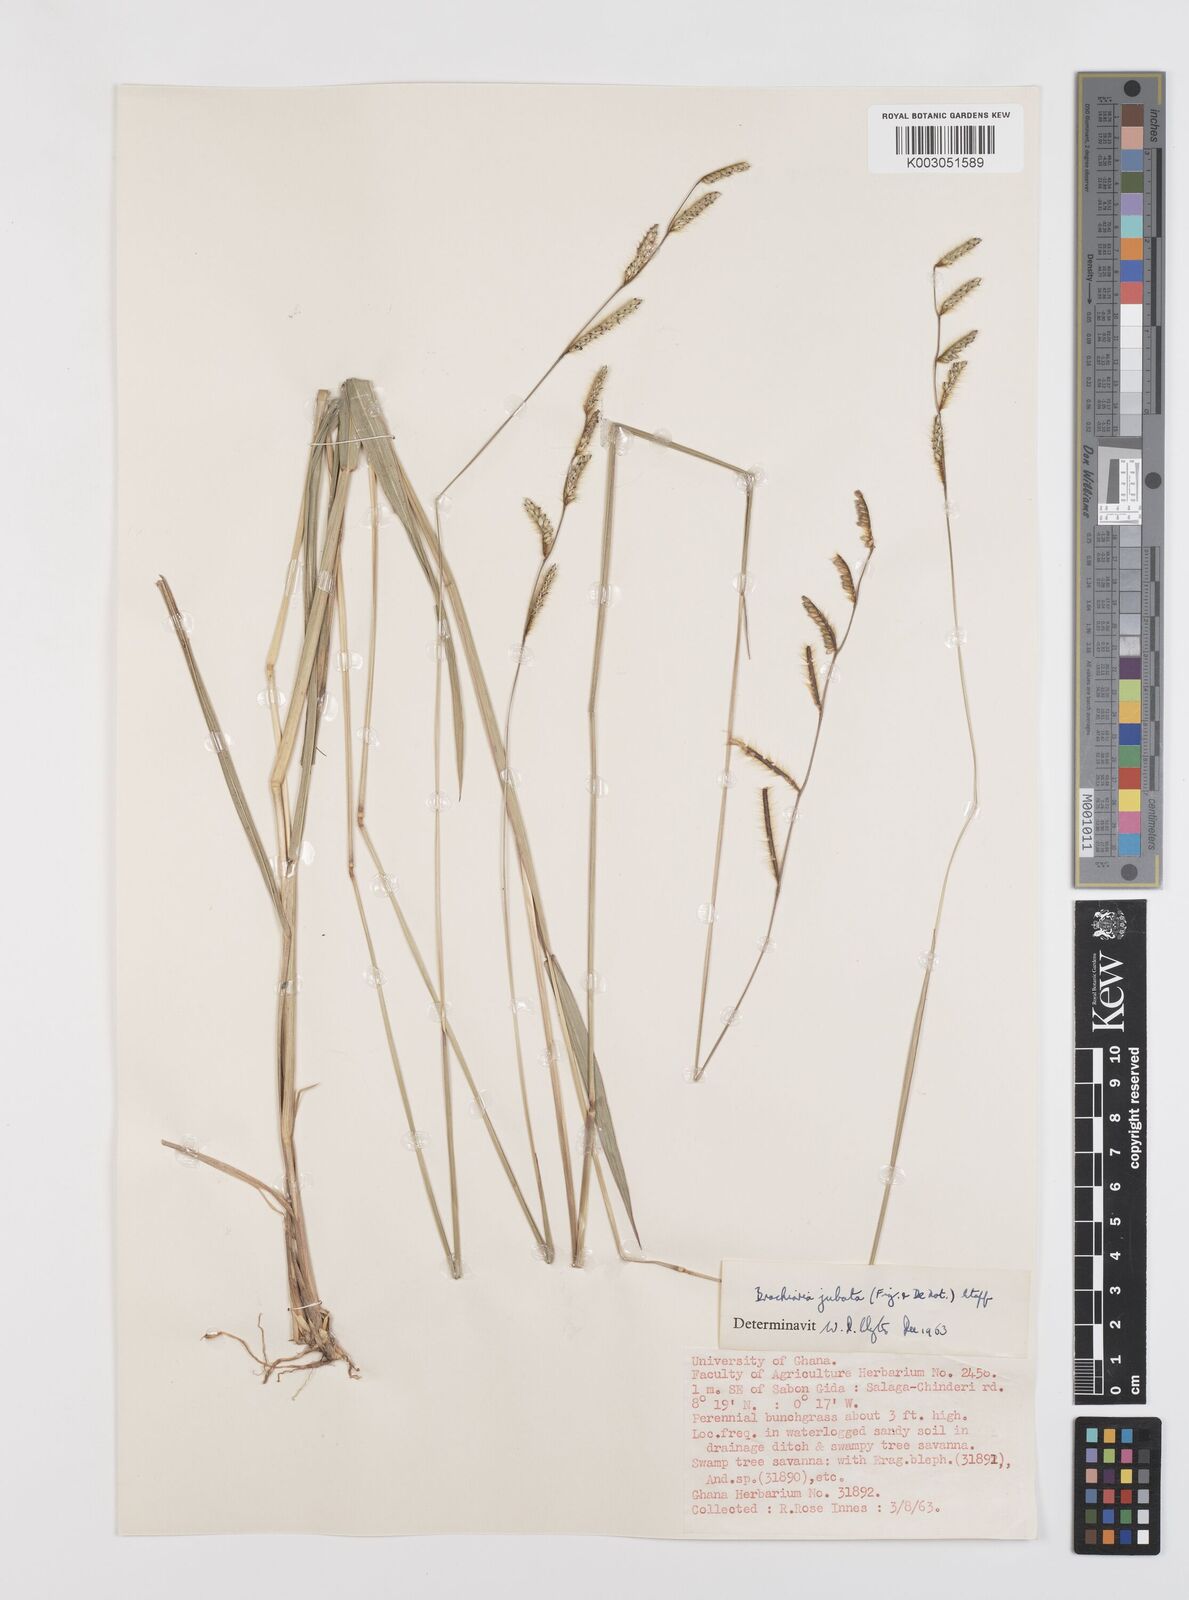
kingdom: Plantae
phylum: Tracheophyta
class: Liliopsida
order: Poales
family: Poaceae
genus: Urochloa
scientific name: Urochloa jubata
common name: Buffalograss
